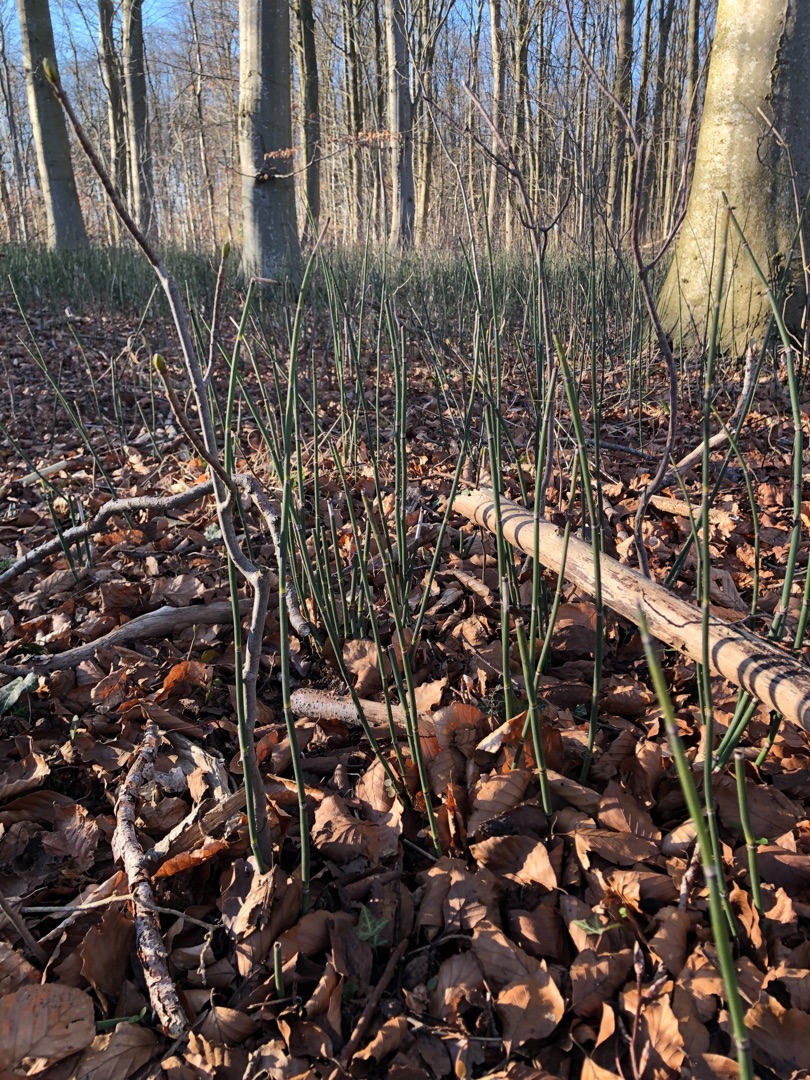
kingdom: Plantae
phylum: Tracheophyta
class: Polypodiopsida
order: Equisetales
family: Equisetaceae
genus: Equisetum
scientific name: Equisetum hyemale
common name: Skavgræs
